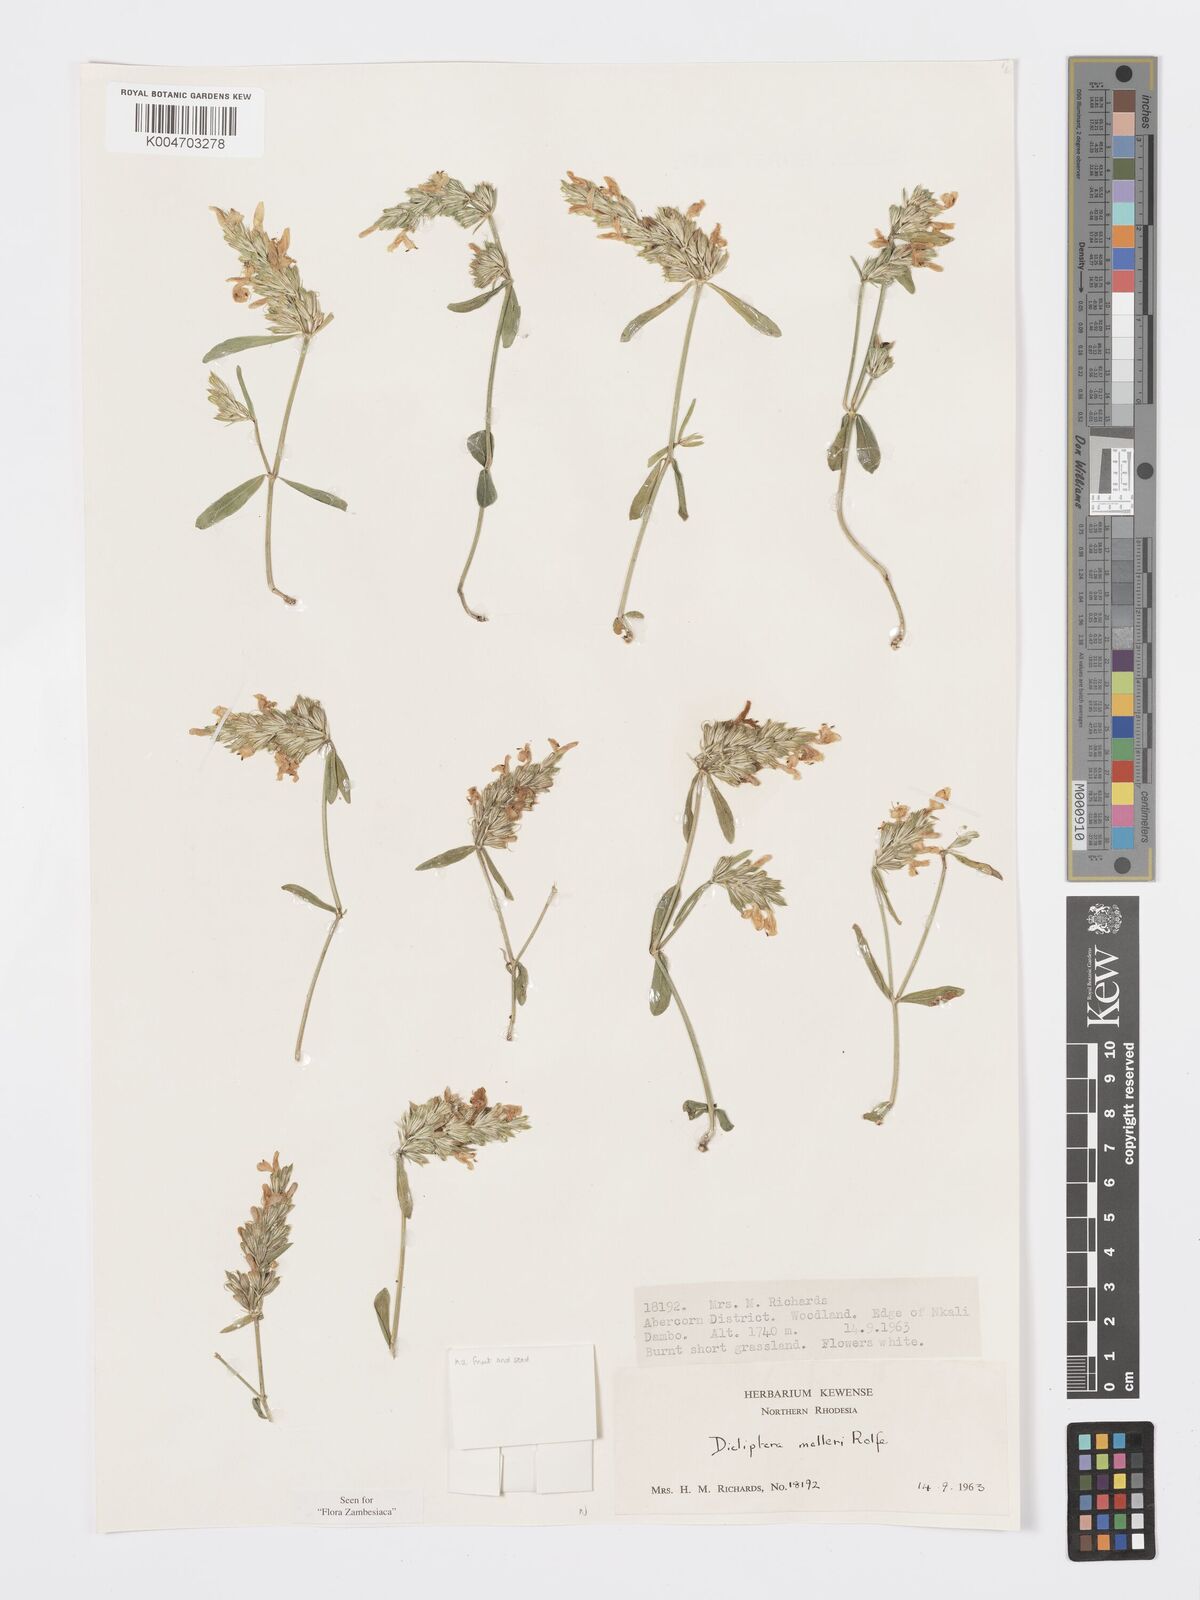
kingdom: Plantae
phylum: Tracheophyta
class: Magnoliopsida
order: Lamiales
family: Acanthaceae
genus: Dicliptera
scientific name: Dicliptera melleri
